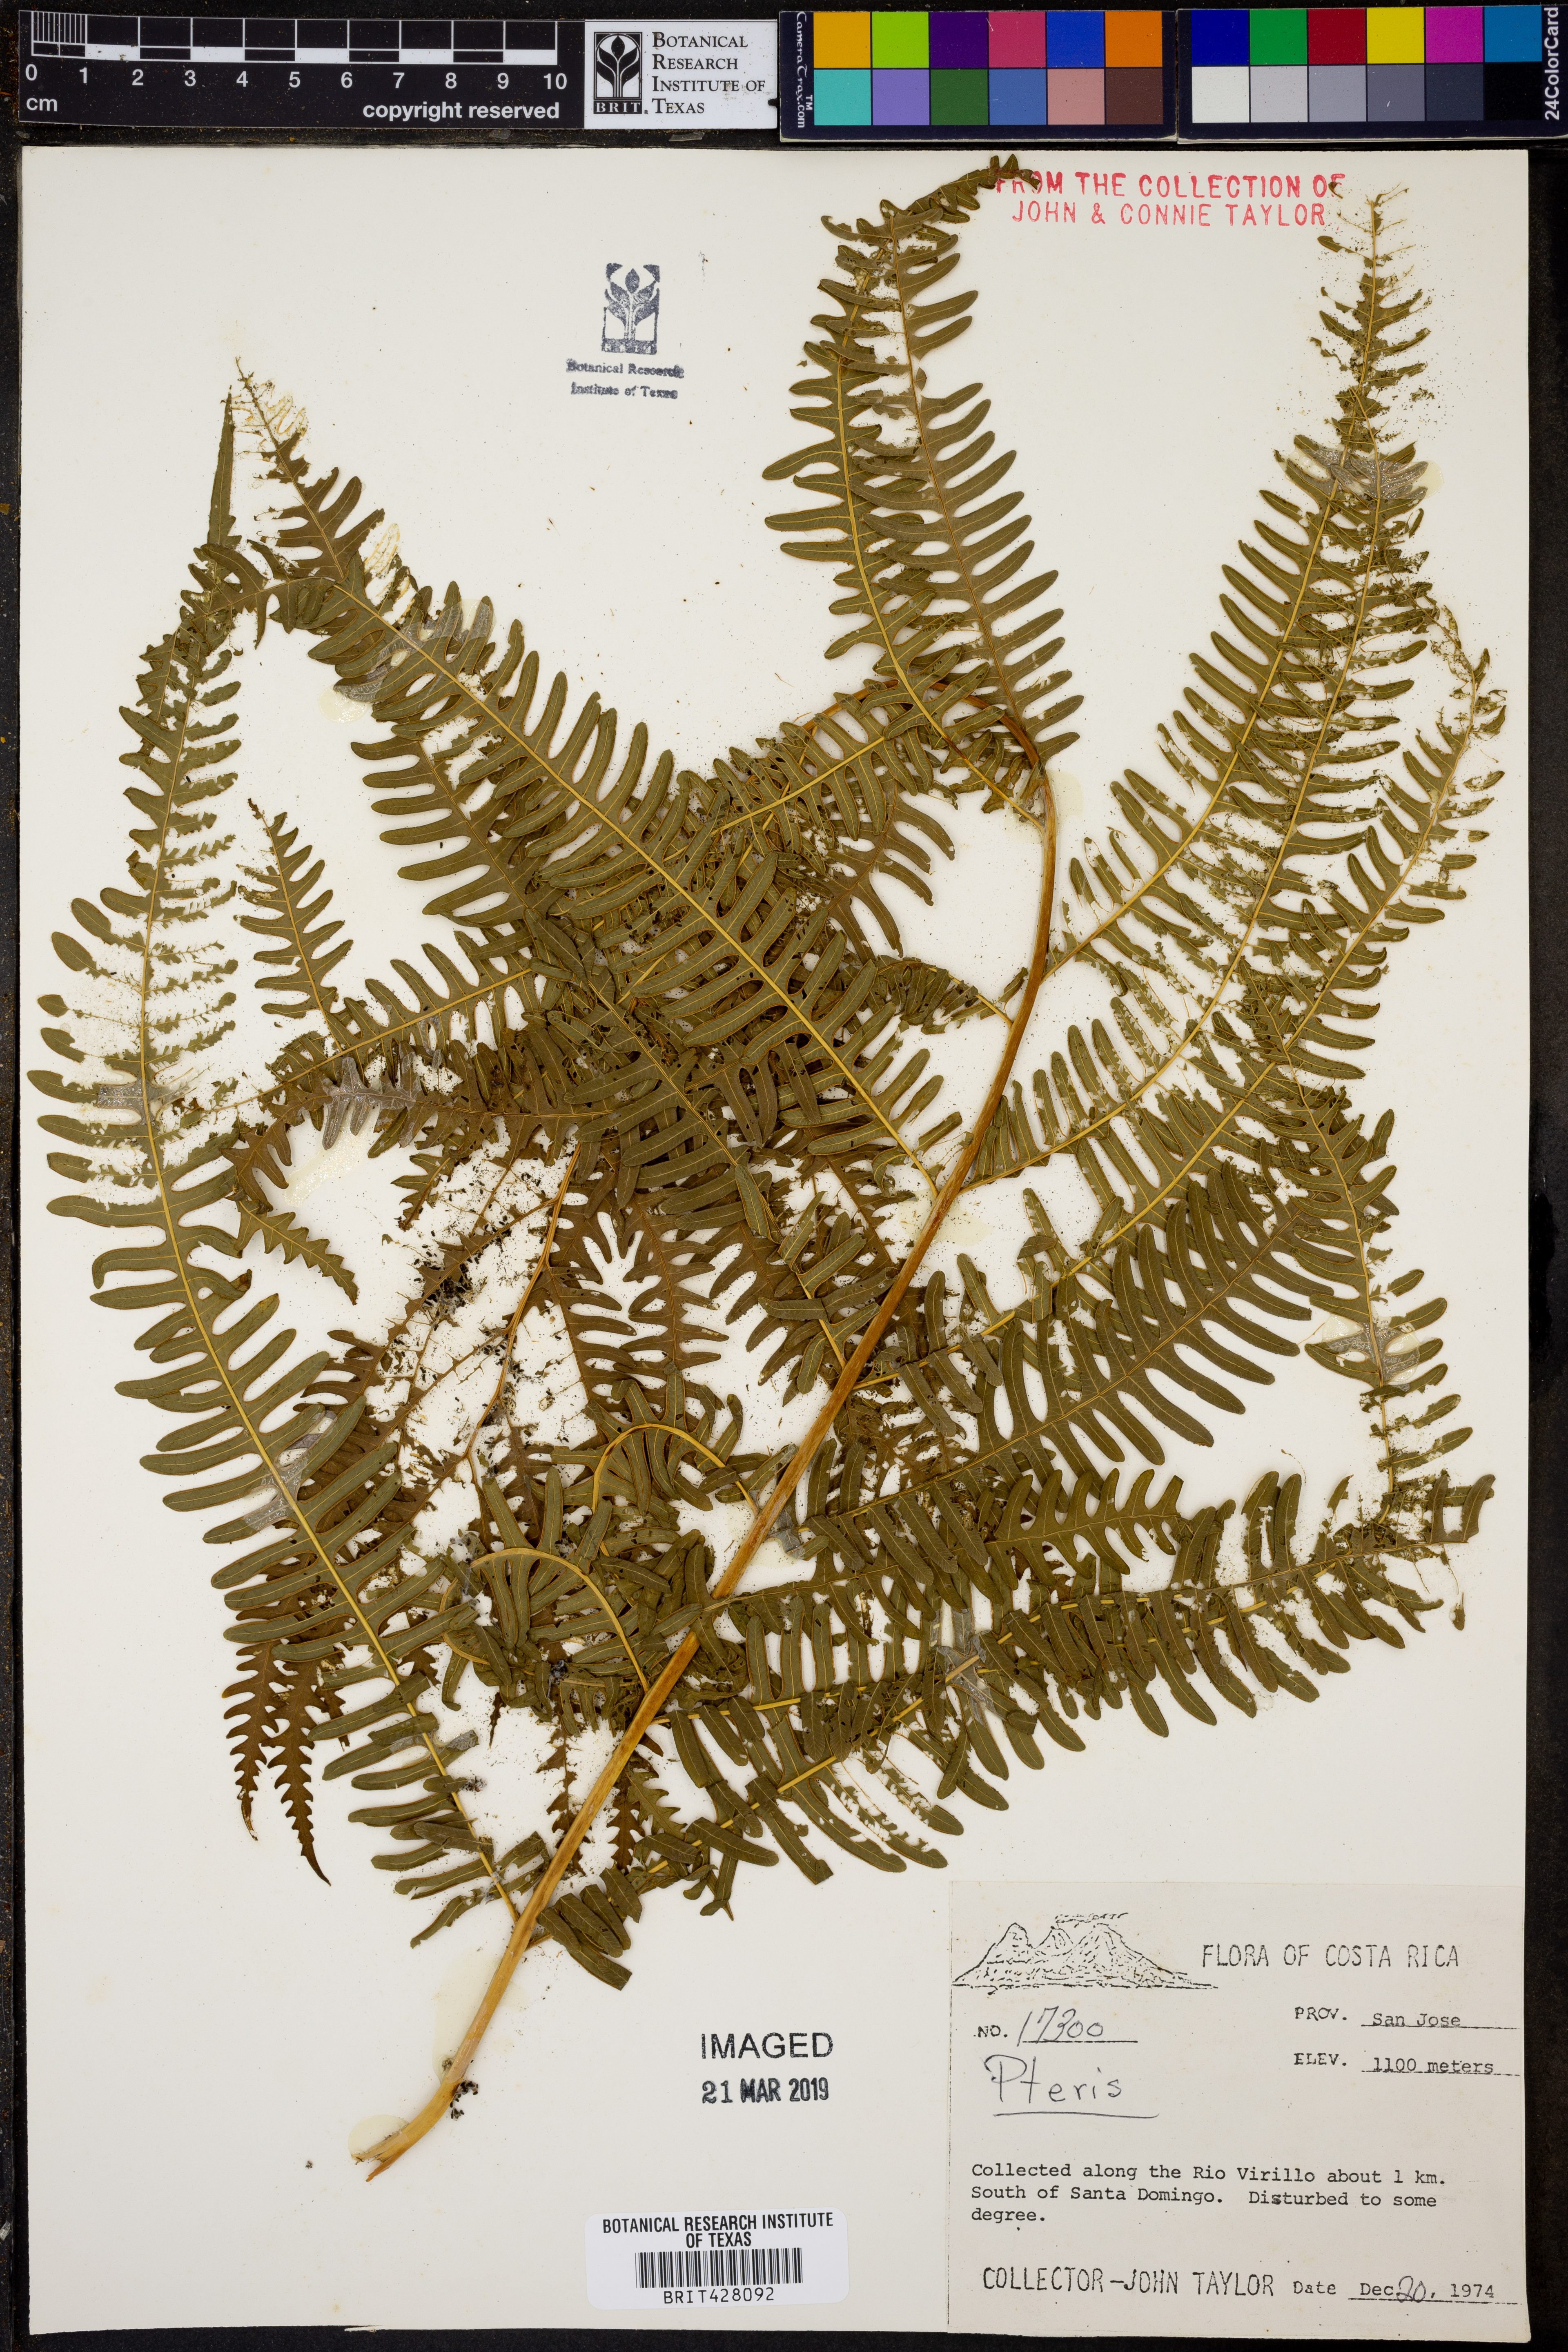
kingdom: Plantae
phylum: Tracheophyta
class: Polypodiopsida
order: Polypodiales
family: Pteridaceae
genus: Pteris
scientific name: Pteris
